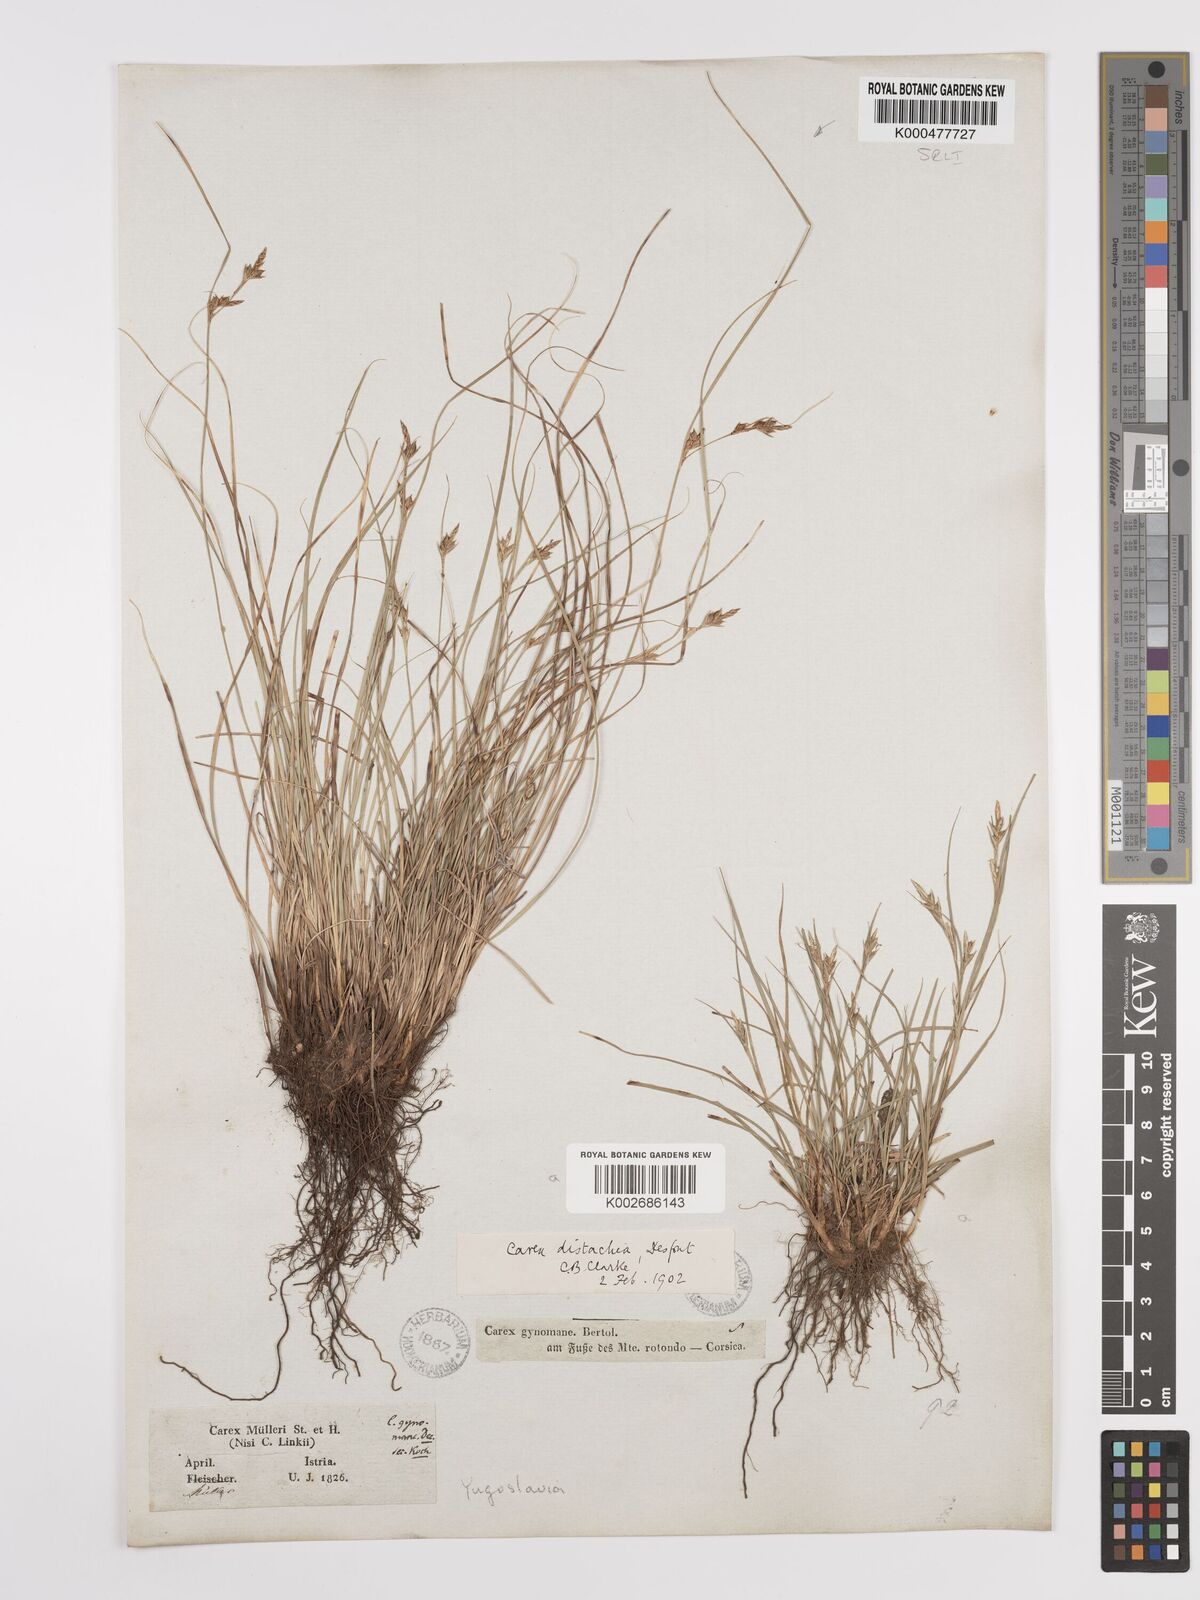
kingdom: Plantae
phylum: Tracheophyta
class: Liliopsida
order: Poales
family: Cyperaceae
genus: Carex
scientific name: Carex distachya
